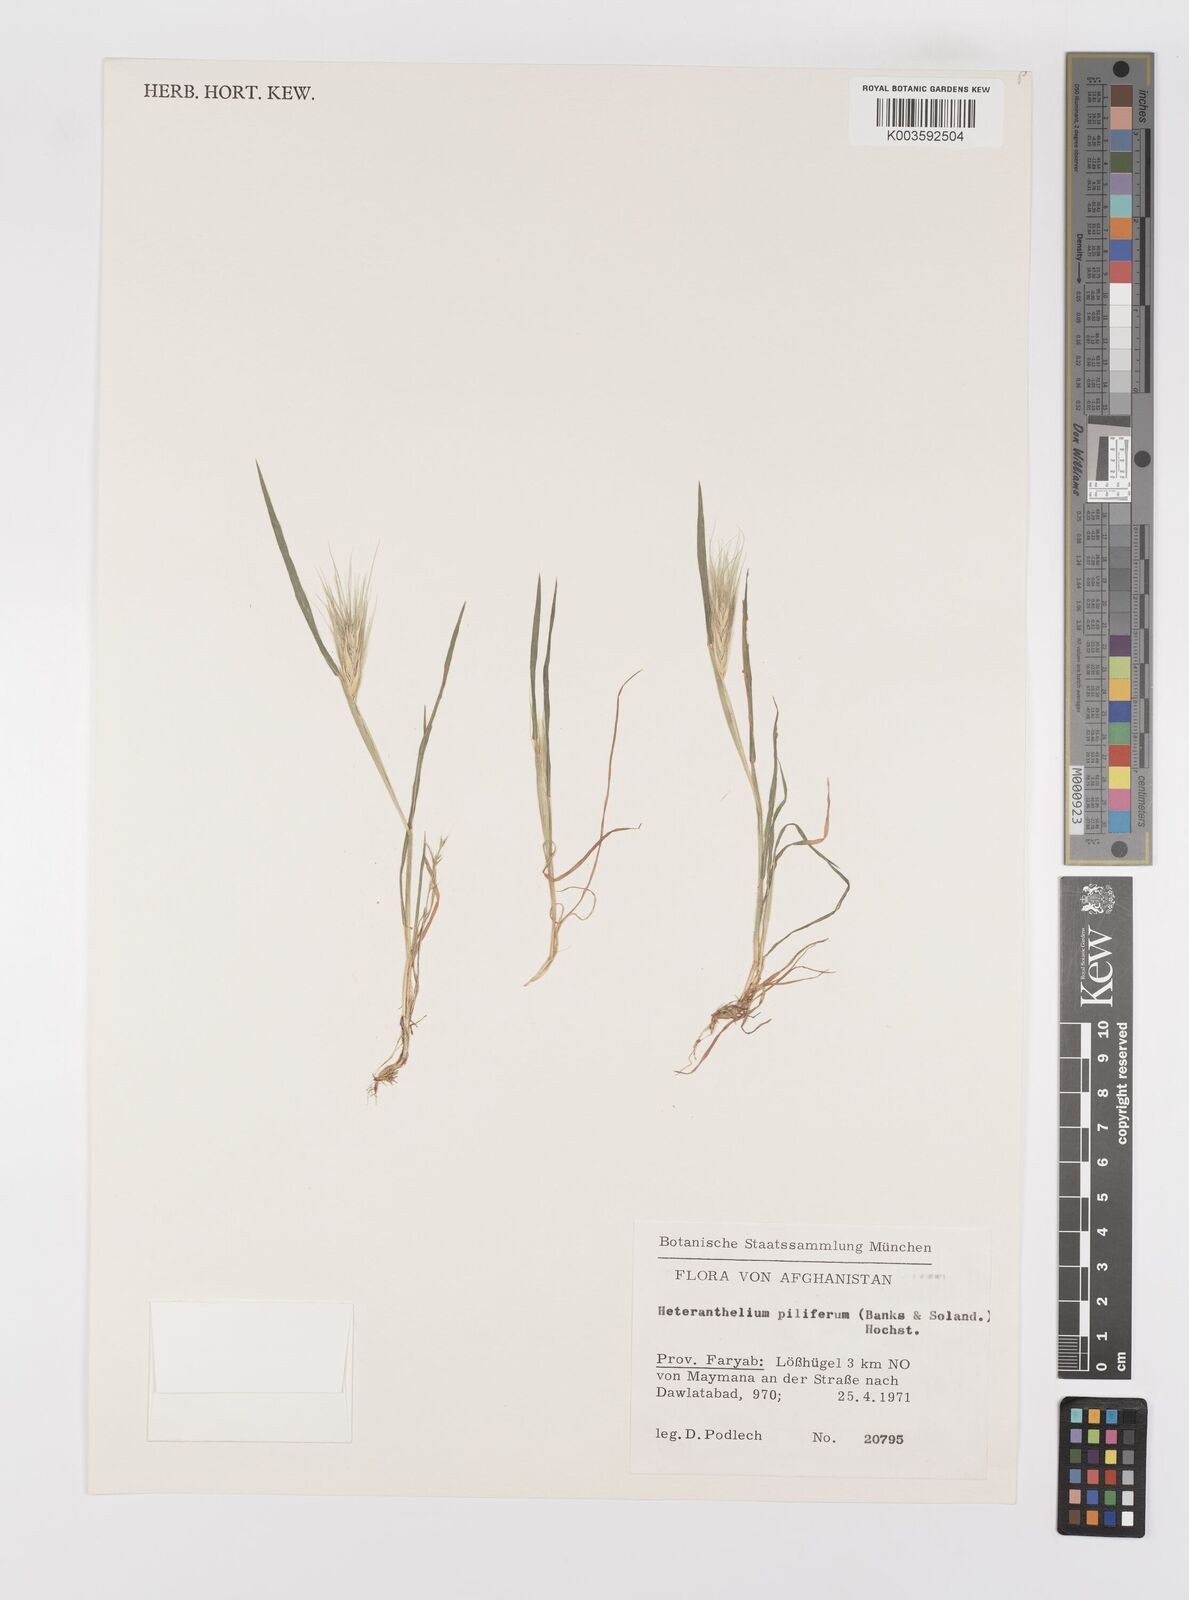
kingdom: Plantae
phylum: Tracheophyta
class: Liliopsida
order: Poales
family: Poaceae
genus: Heteranthelium
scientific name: Heteranthelium piliferum
